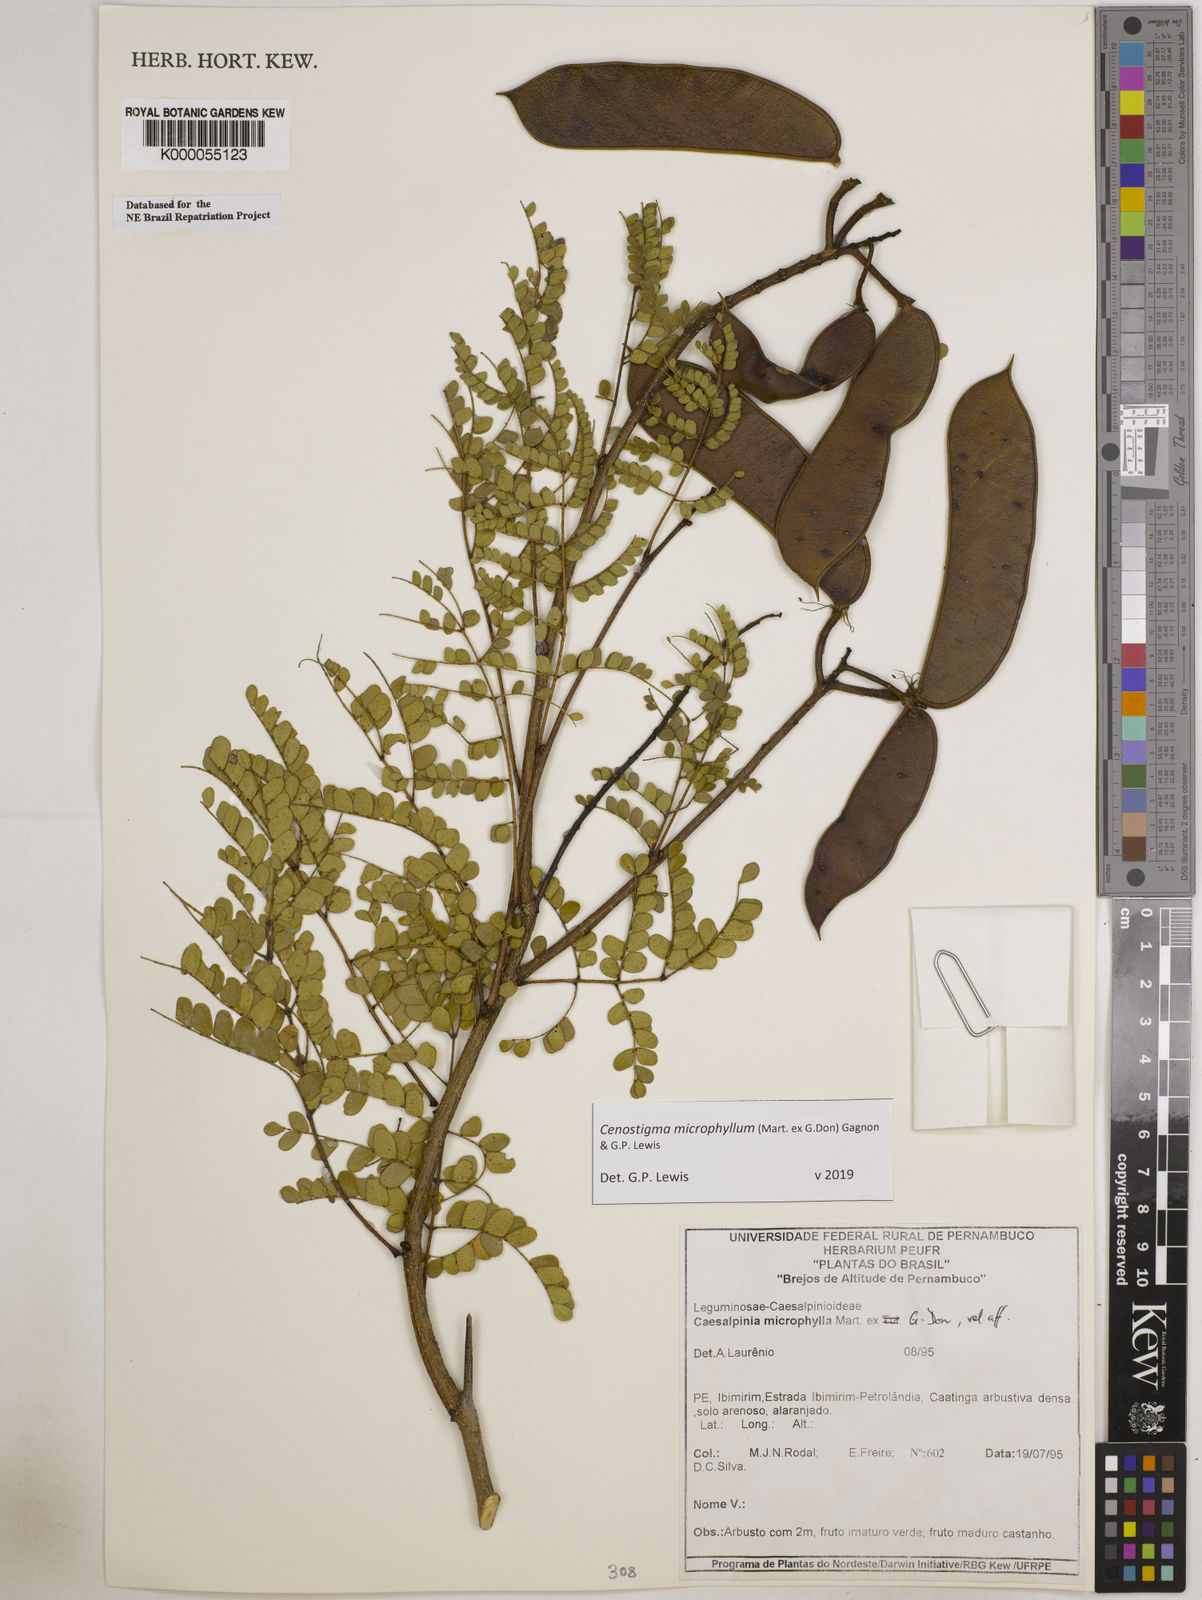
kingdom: Plantae
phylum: Tracheophyta
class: Magnoliopsida
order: Fabales
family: Fabaceae
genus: Cenostigma
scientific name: Cenostigma microphyllum
